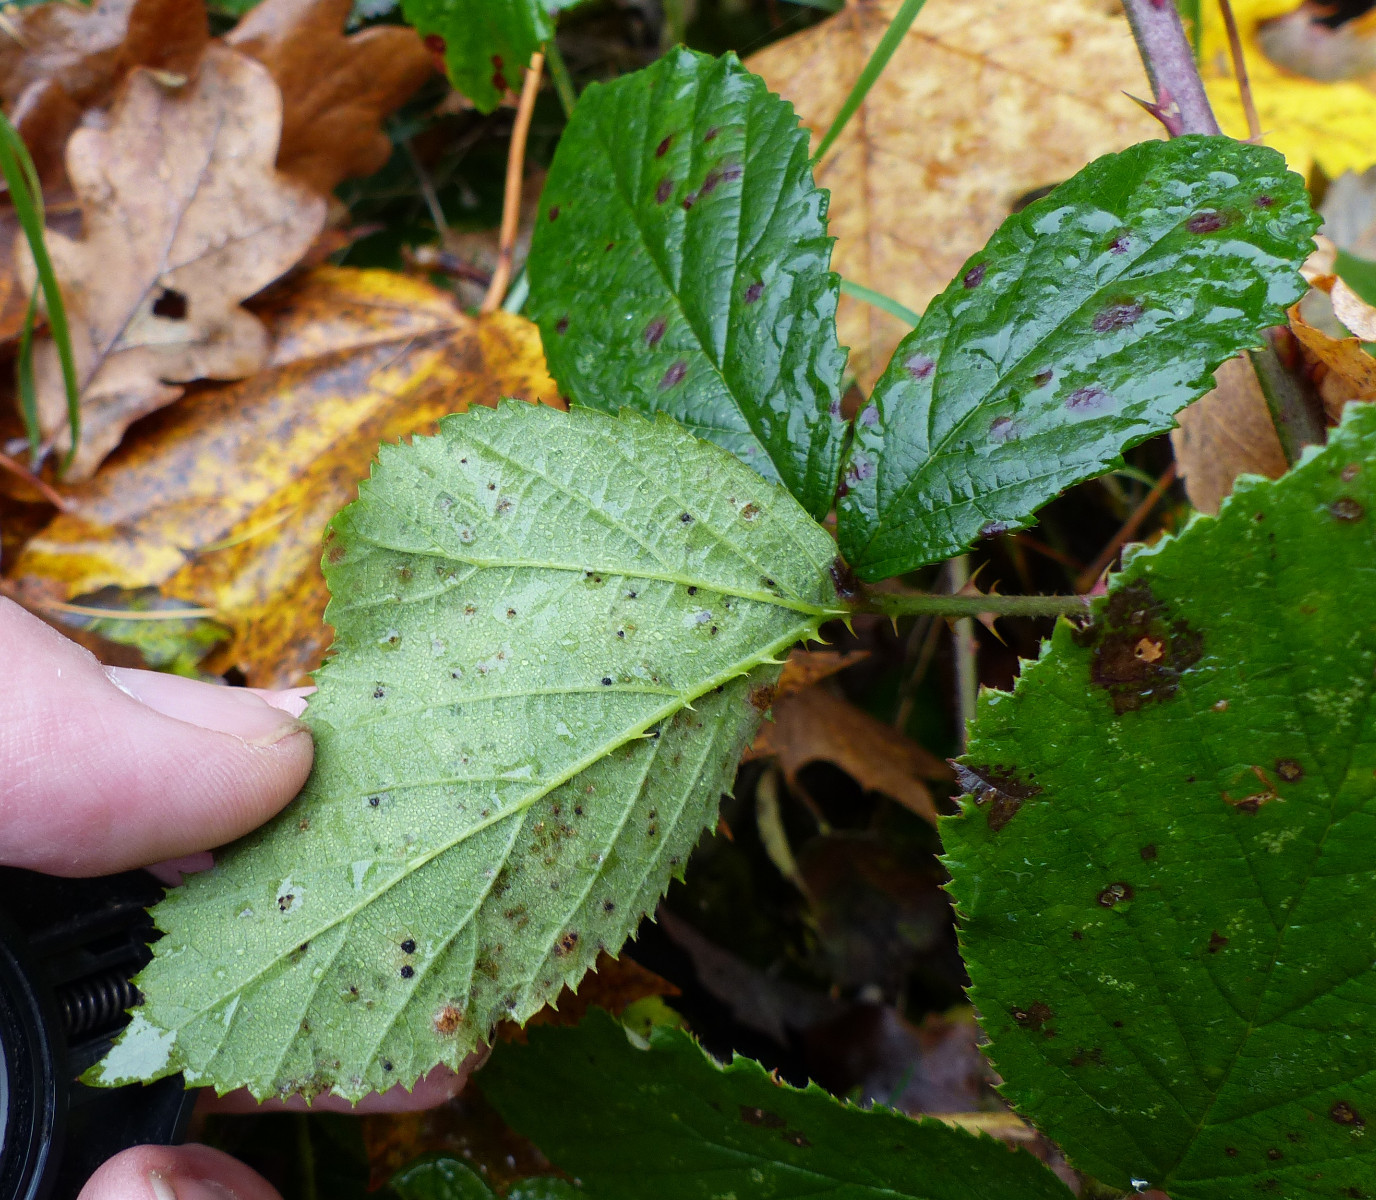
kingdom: Fungi
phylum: Basidiomycota
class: Pucciniomycetes
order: Pucciniales
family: Phragmidiaceae
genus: Phragmidium
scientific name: Phragmidium violaceum
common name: violet flercellerust
